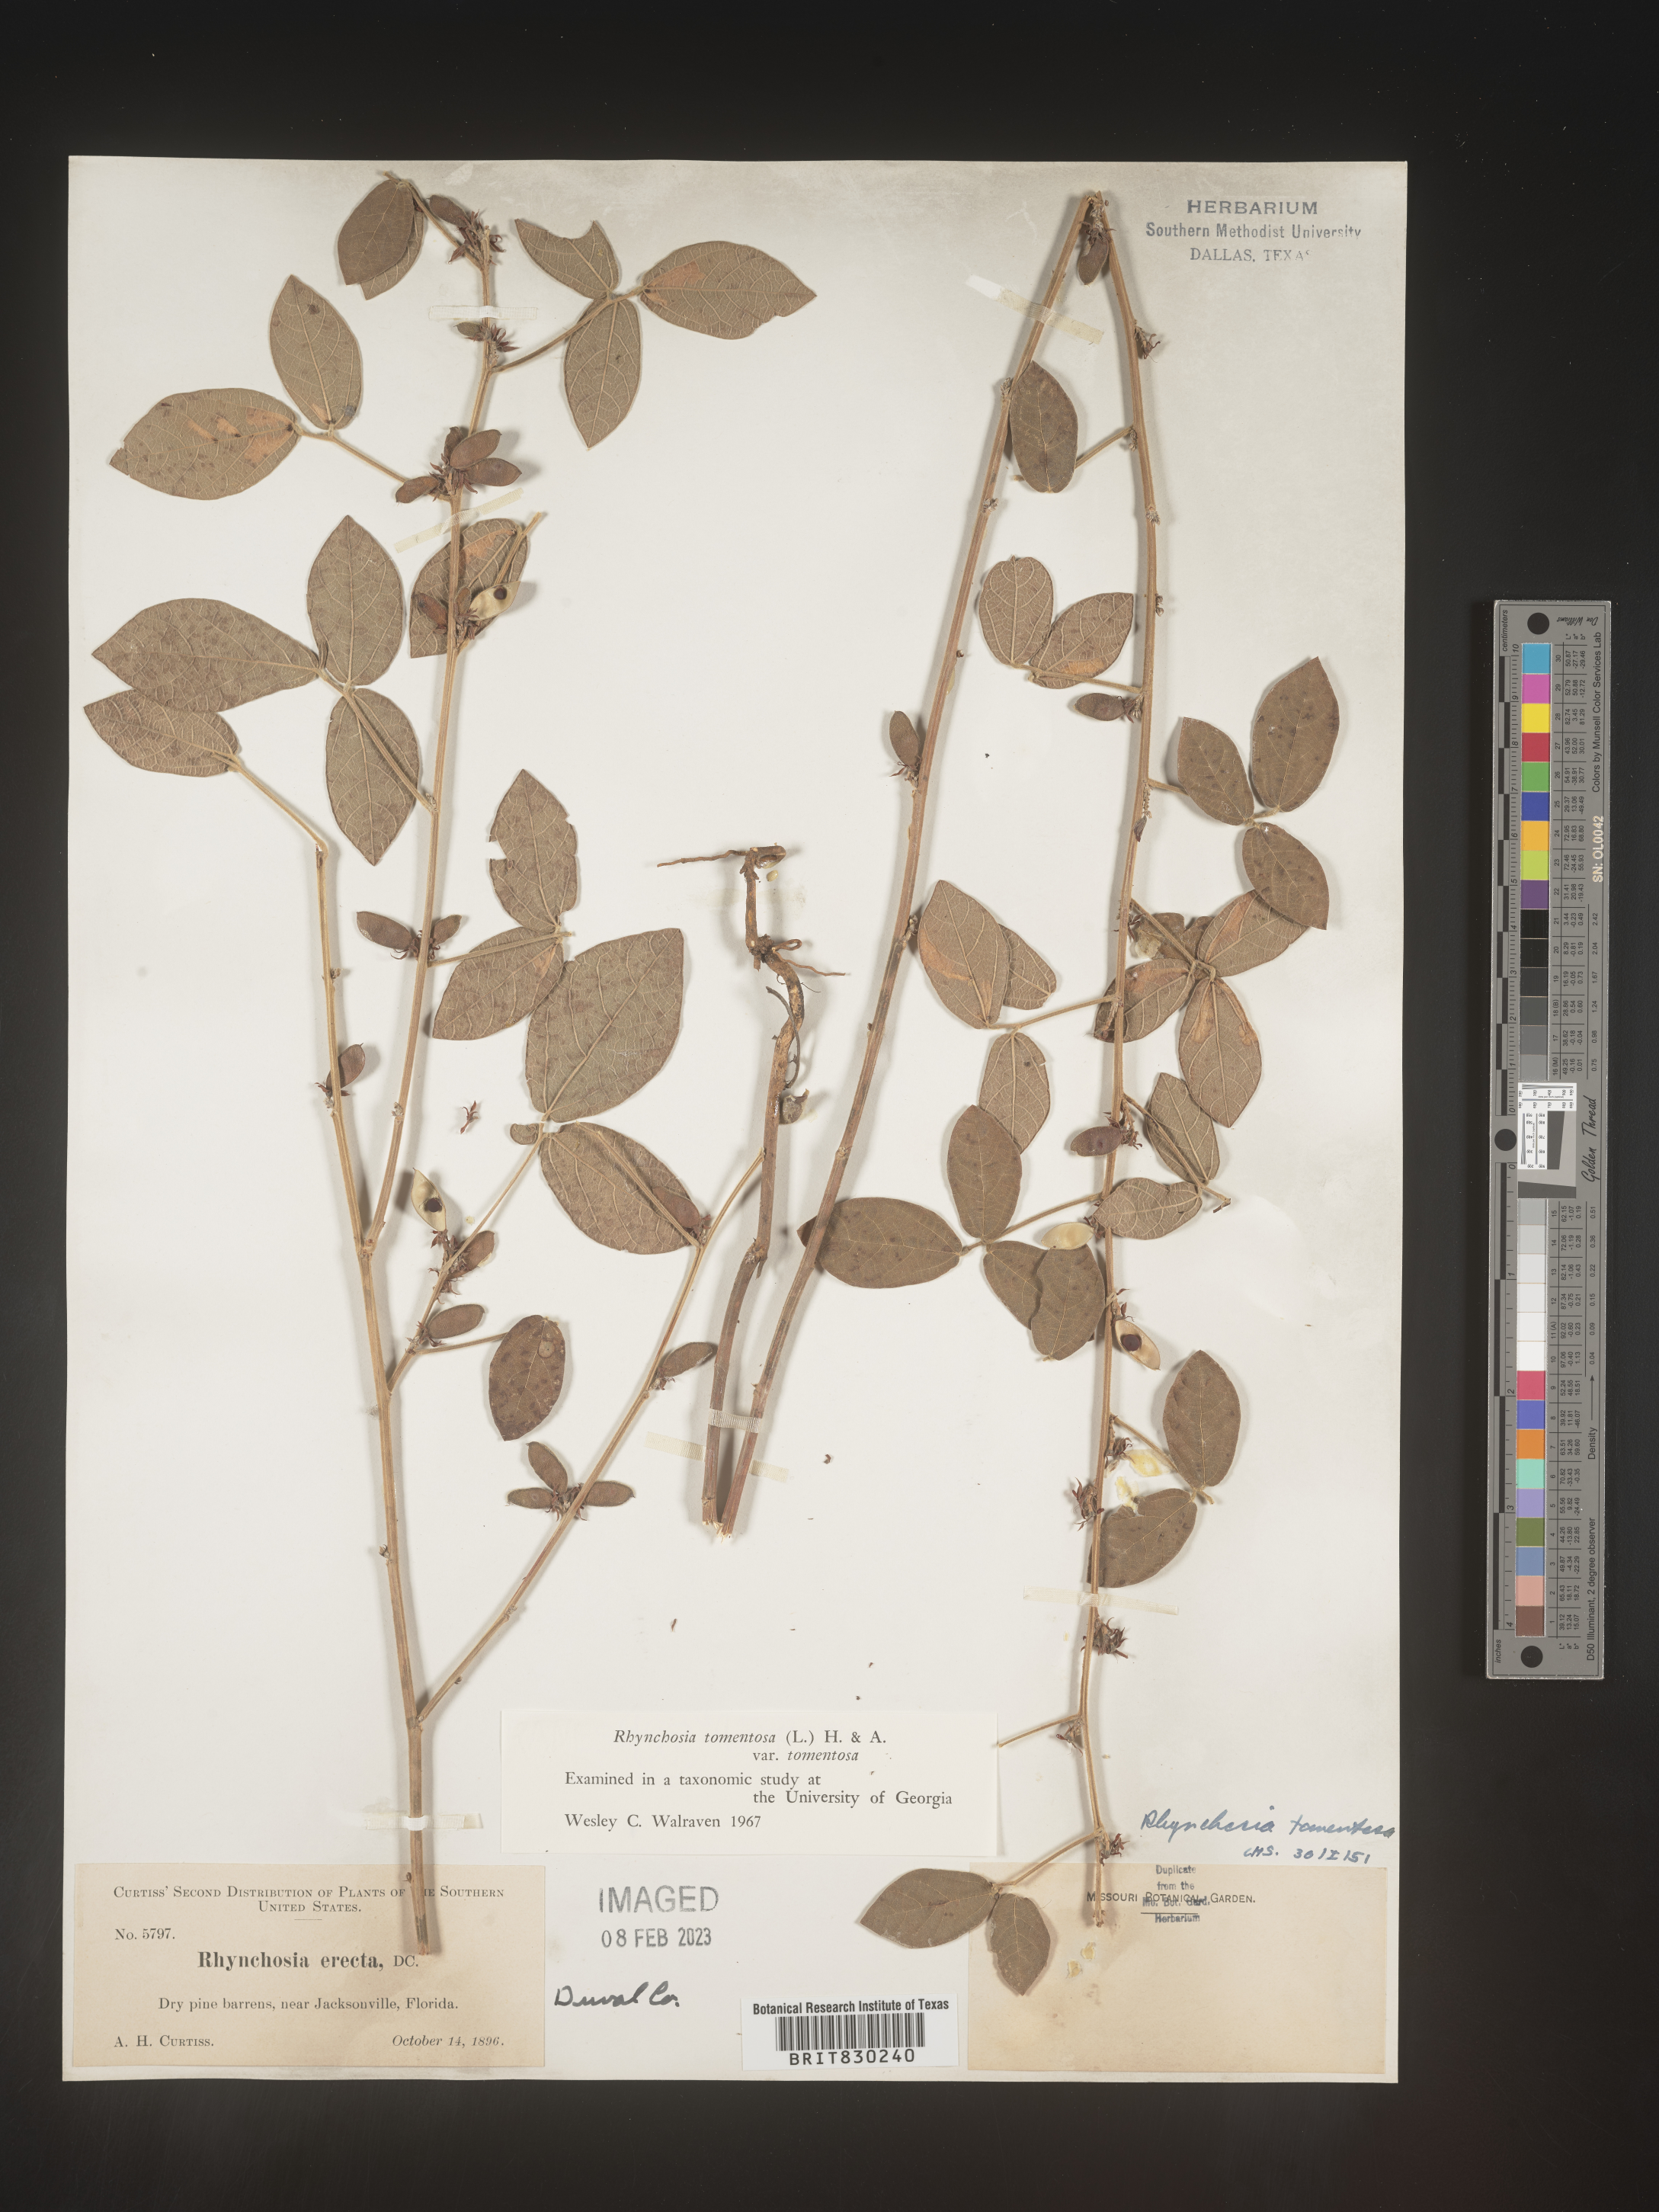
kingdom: Plantae
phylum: Tracheophyta
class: Magnoliopsida
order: Fabales
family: Fabaceae
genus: Rhynchosia
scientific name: Rhynchosia rothii
